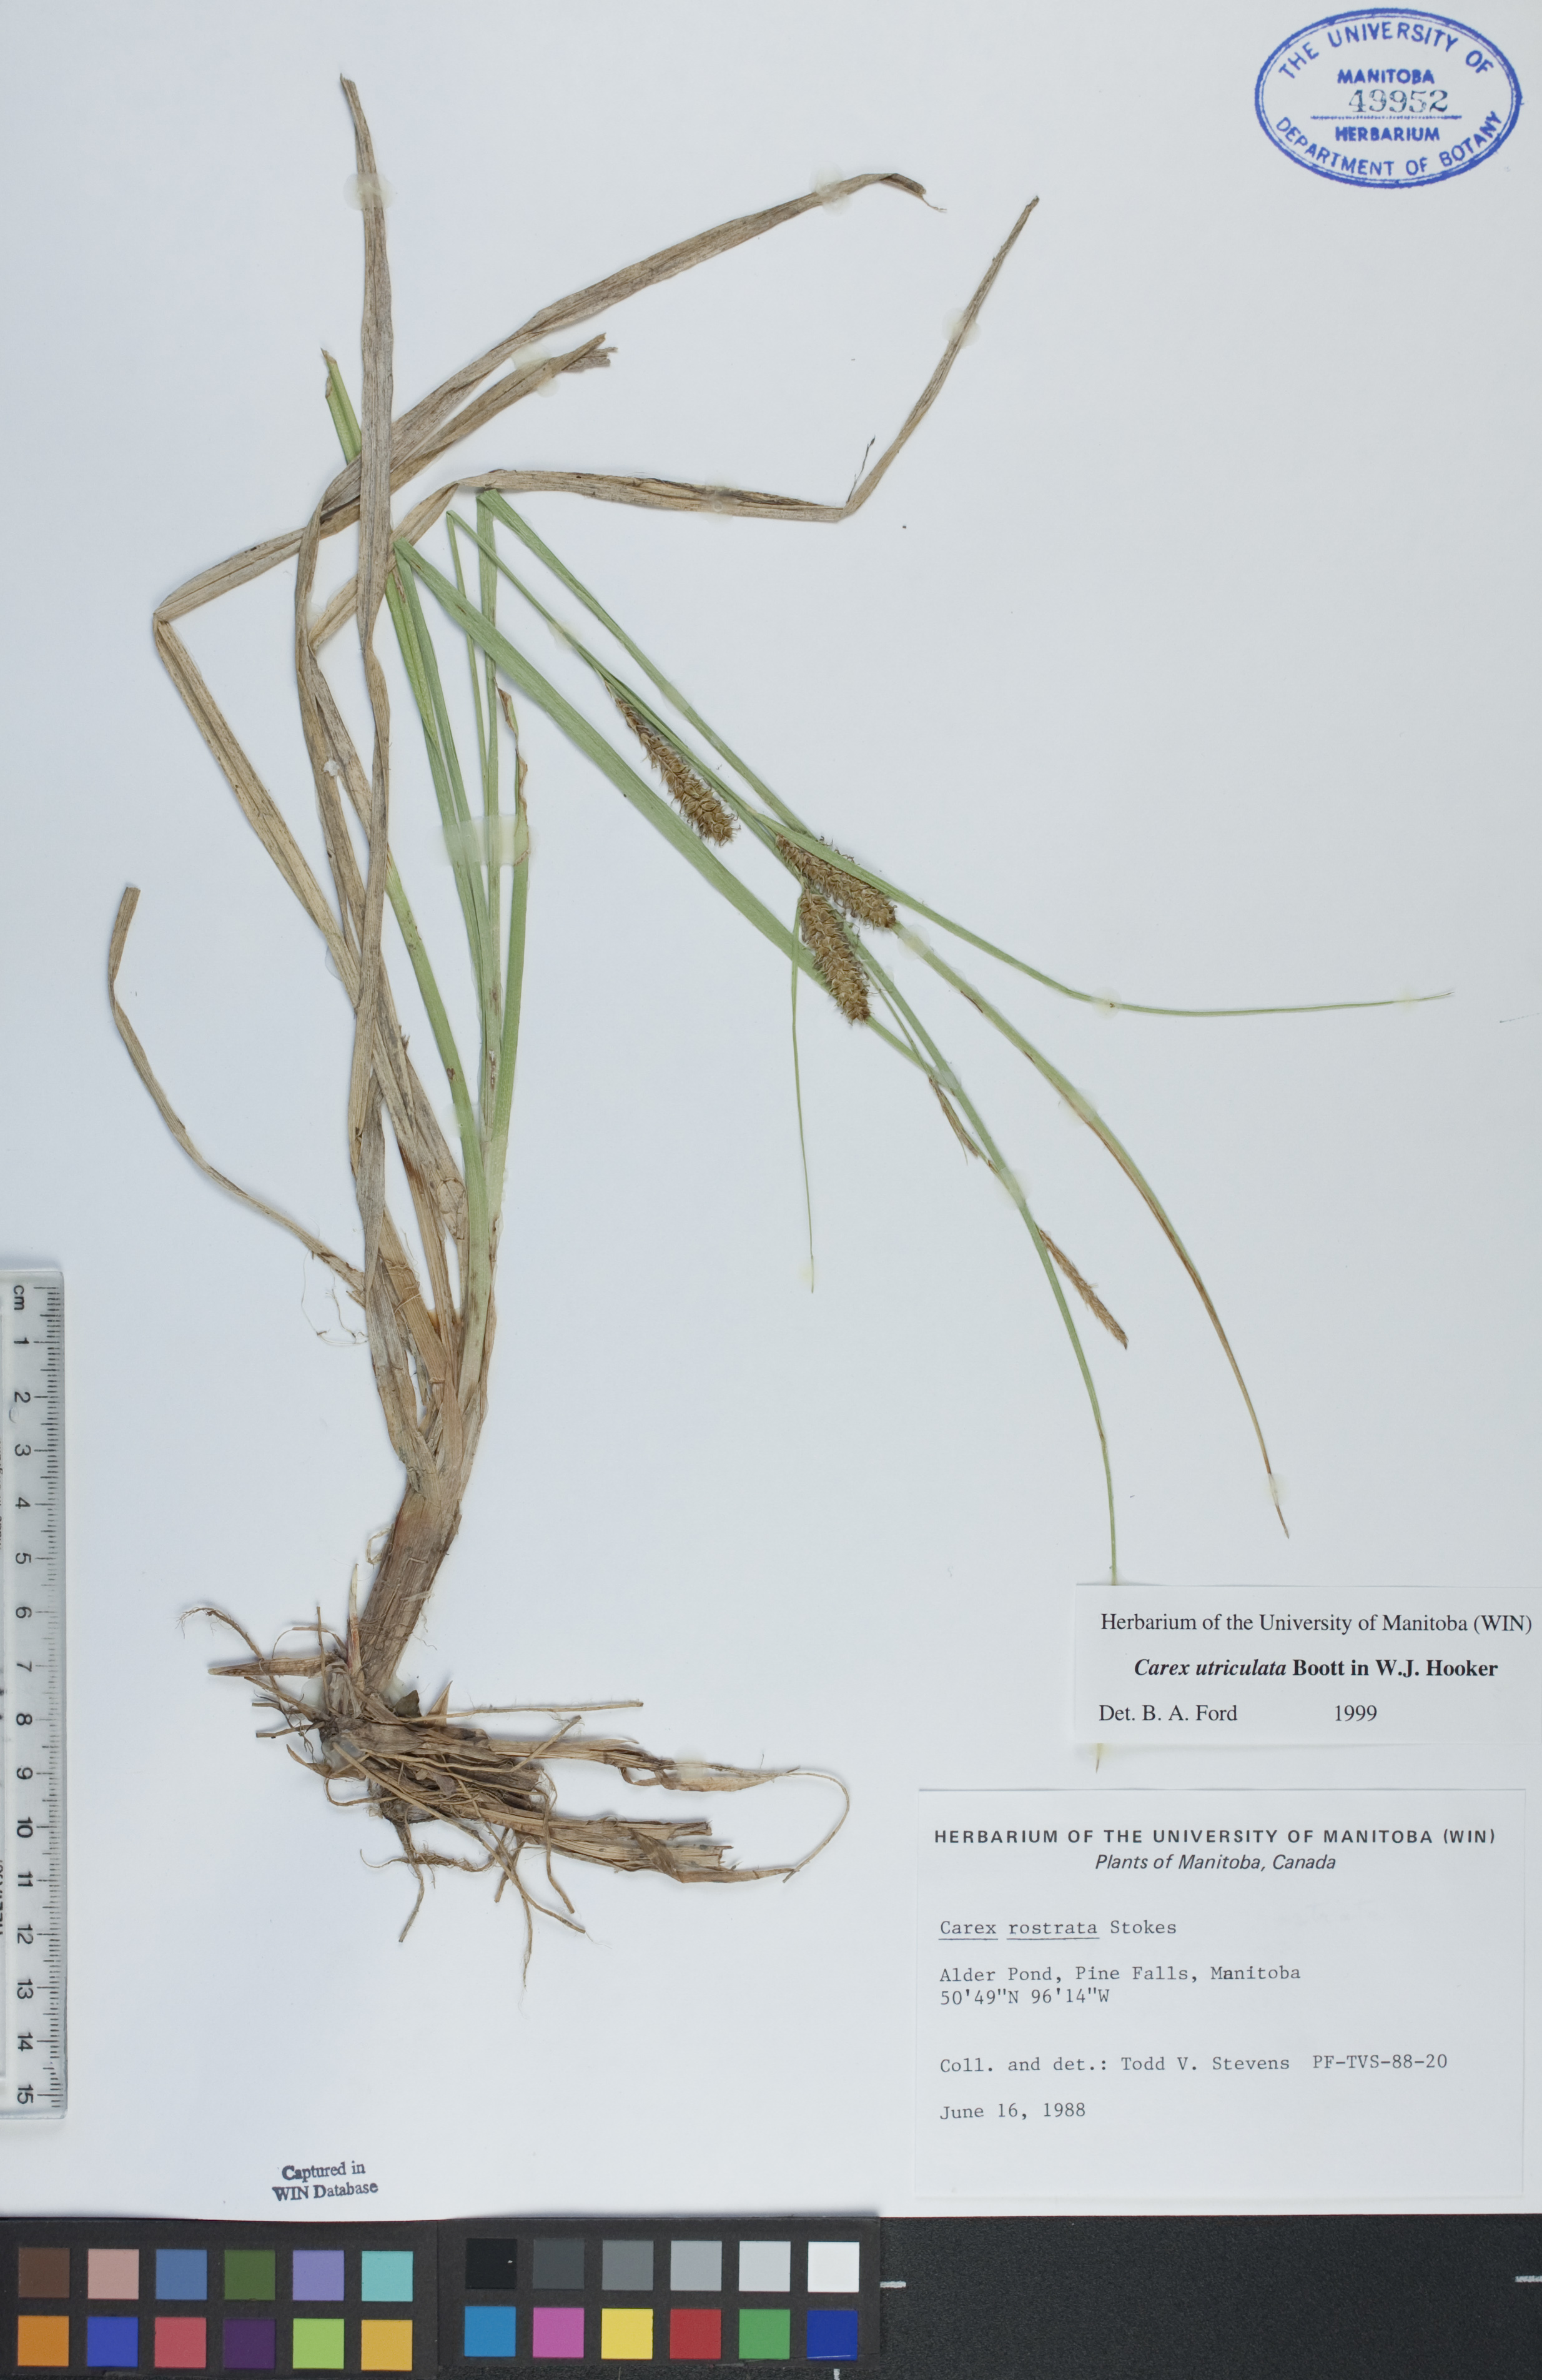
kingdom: Plantae
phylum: Tracheophyta
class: Liliopsida
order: Poales
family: Cyperaceae
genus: Carex
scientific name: Carex utriculata
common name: Beaked sedge
